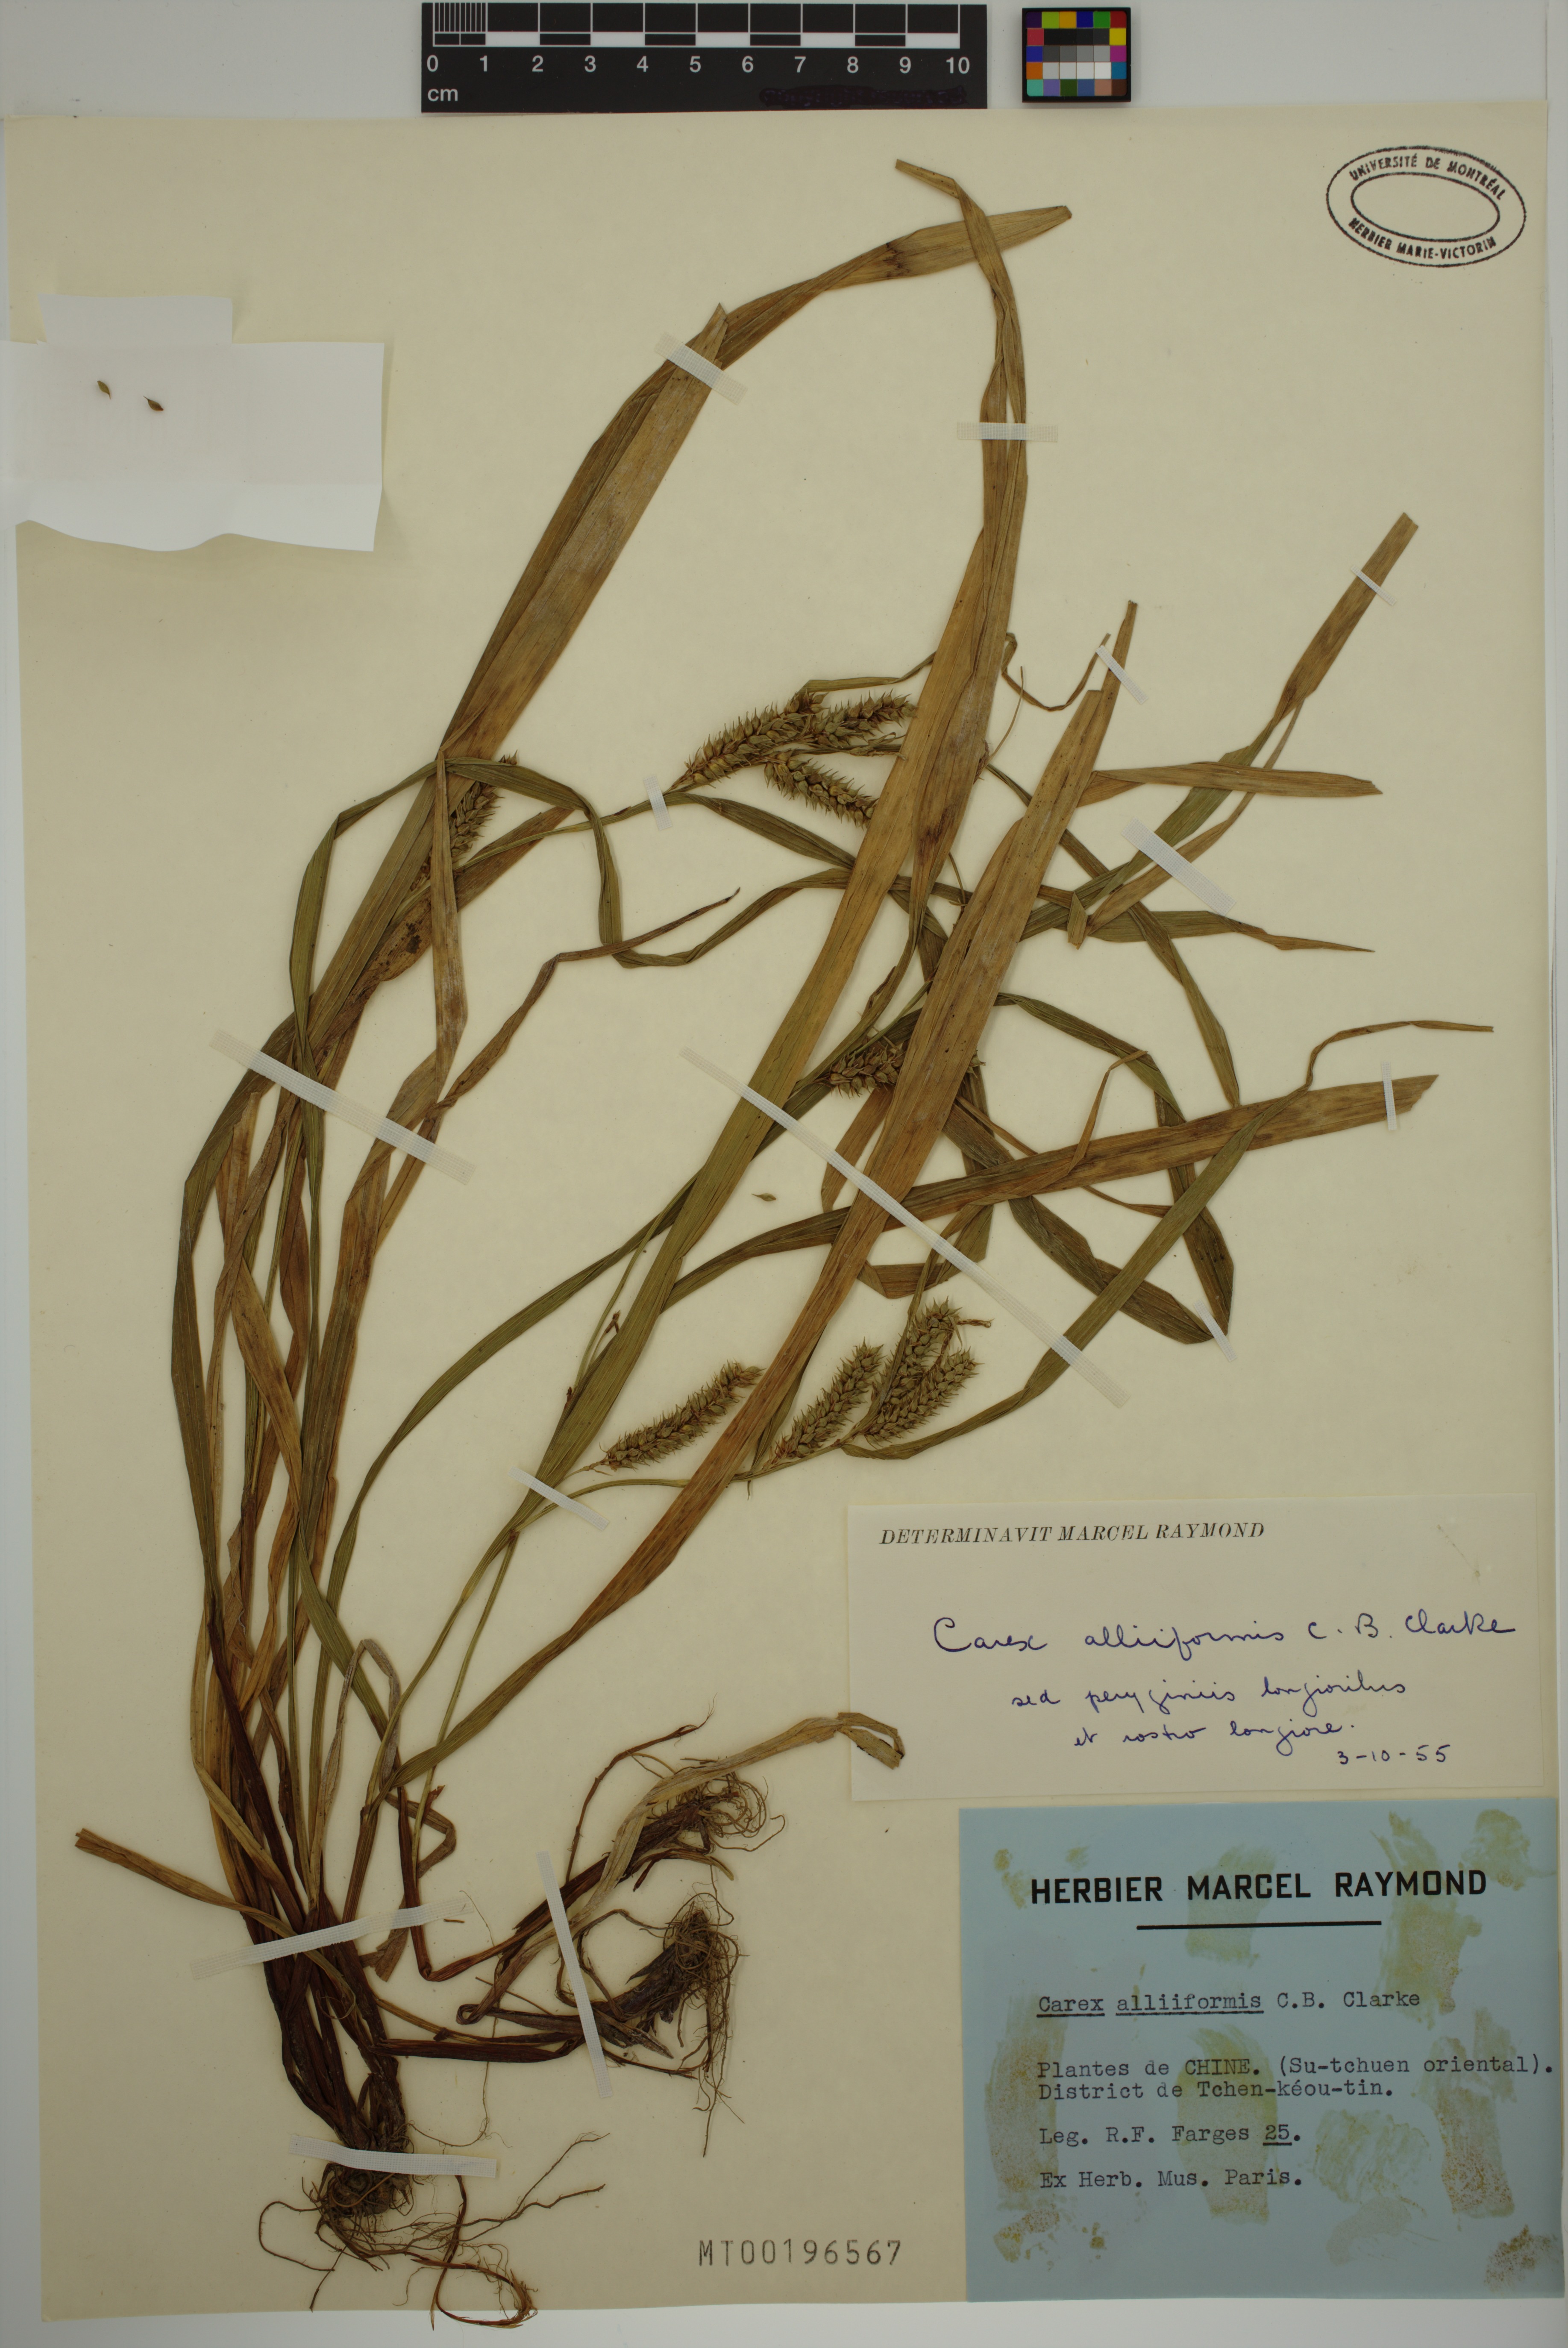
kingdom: Plantae
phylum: Tracheophyta
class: Liliopsida
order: Poales
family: Cyperaceae
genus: Carex
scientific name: Carex alliiformis
